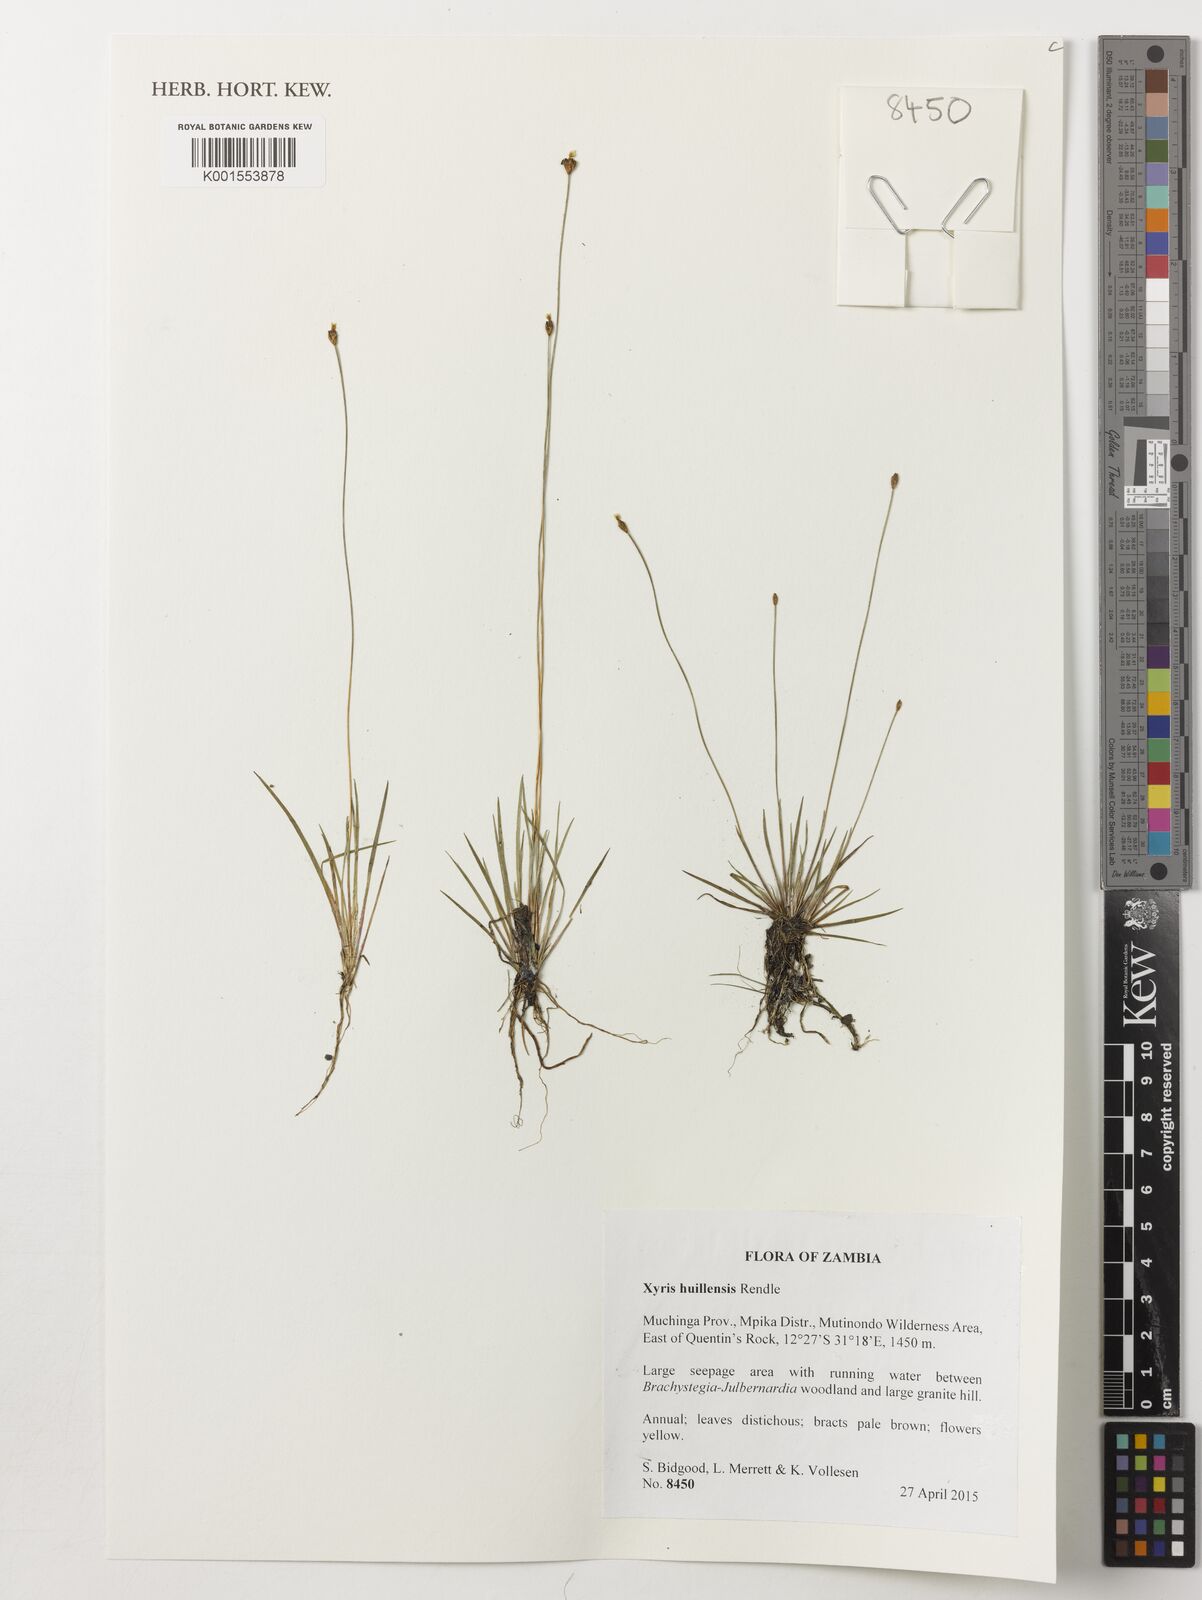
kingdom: Plantae
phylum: Tracheophyta
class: Liliopsida
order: Poales
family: Xyridaceae
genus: Xyris
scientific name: Xyris huillensis
